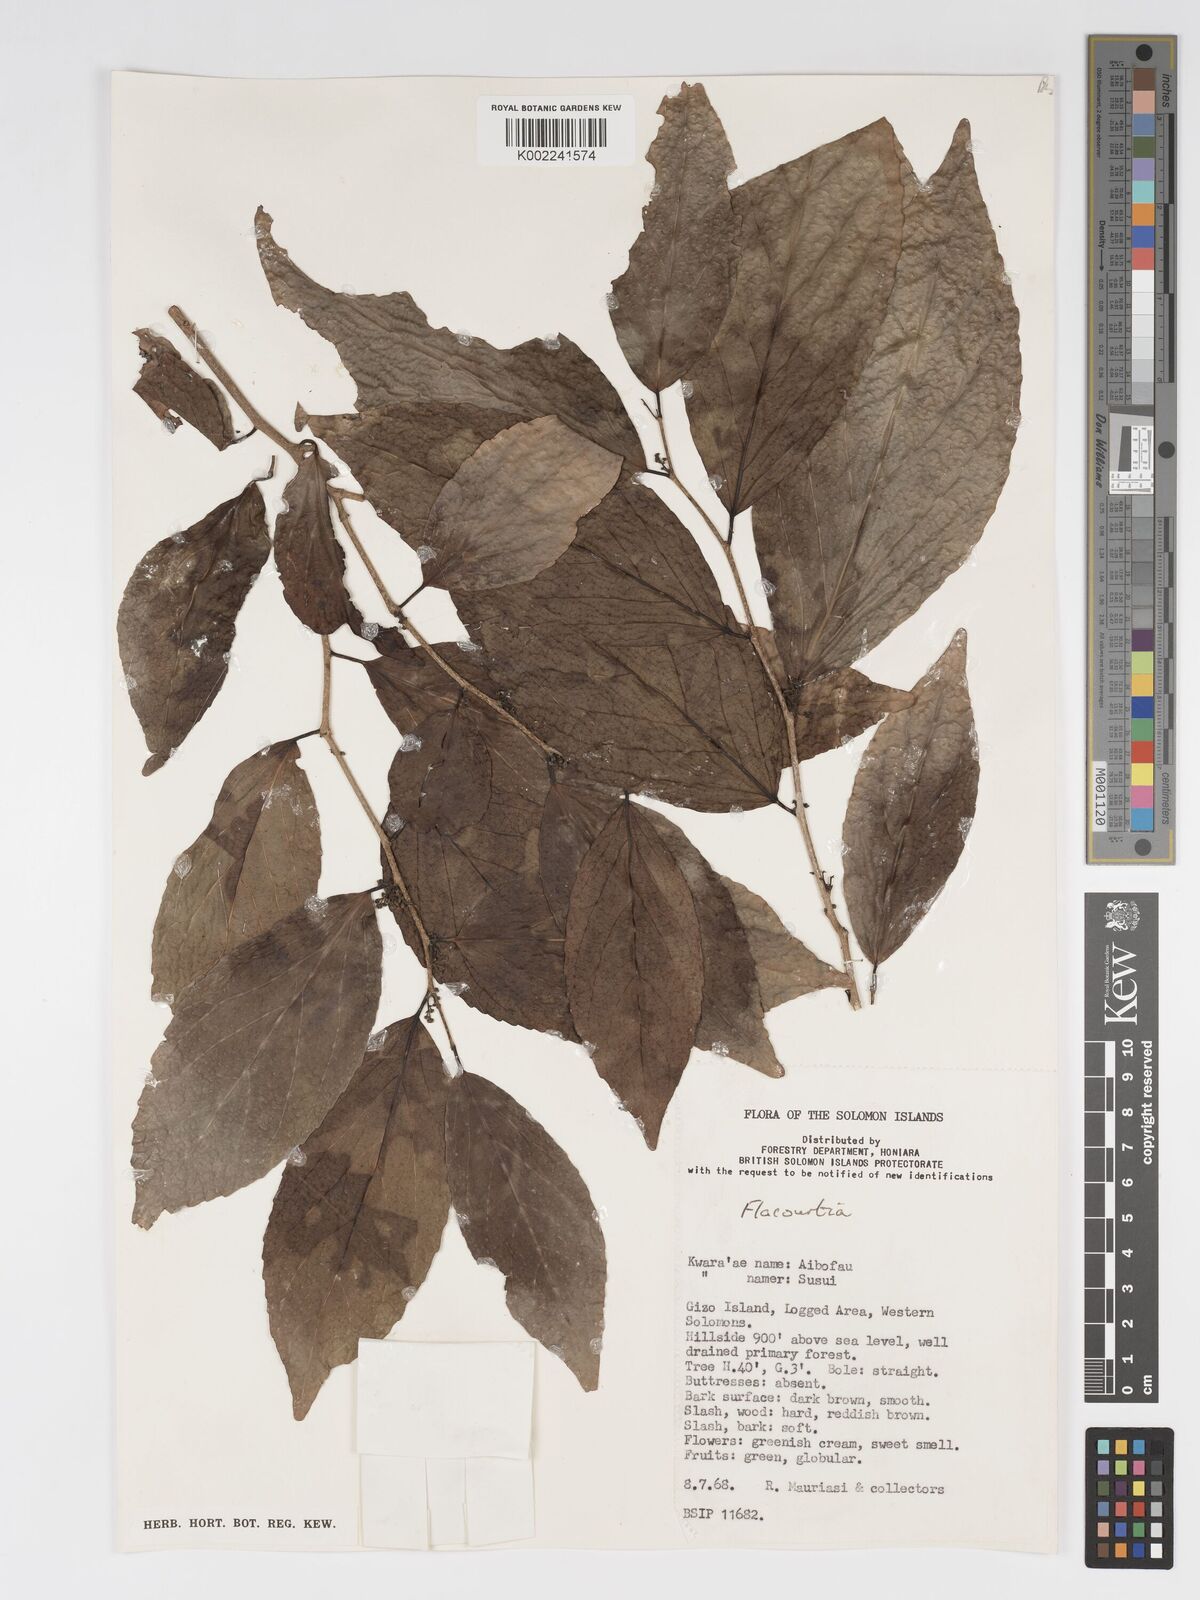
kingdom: Plantae
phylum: Tracheophyta
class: Magnoliopsida
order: Malpighiales
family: Salicaceae
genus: Flacourtia
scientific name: Flacourtia
